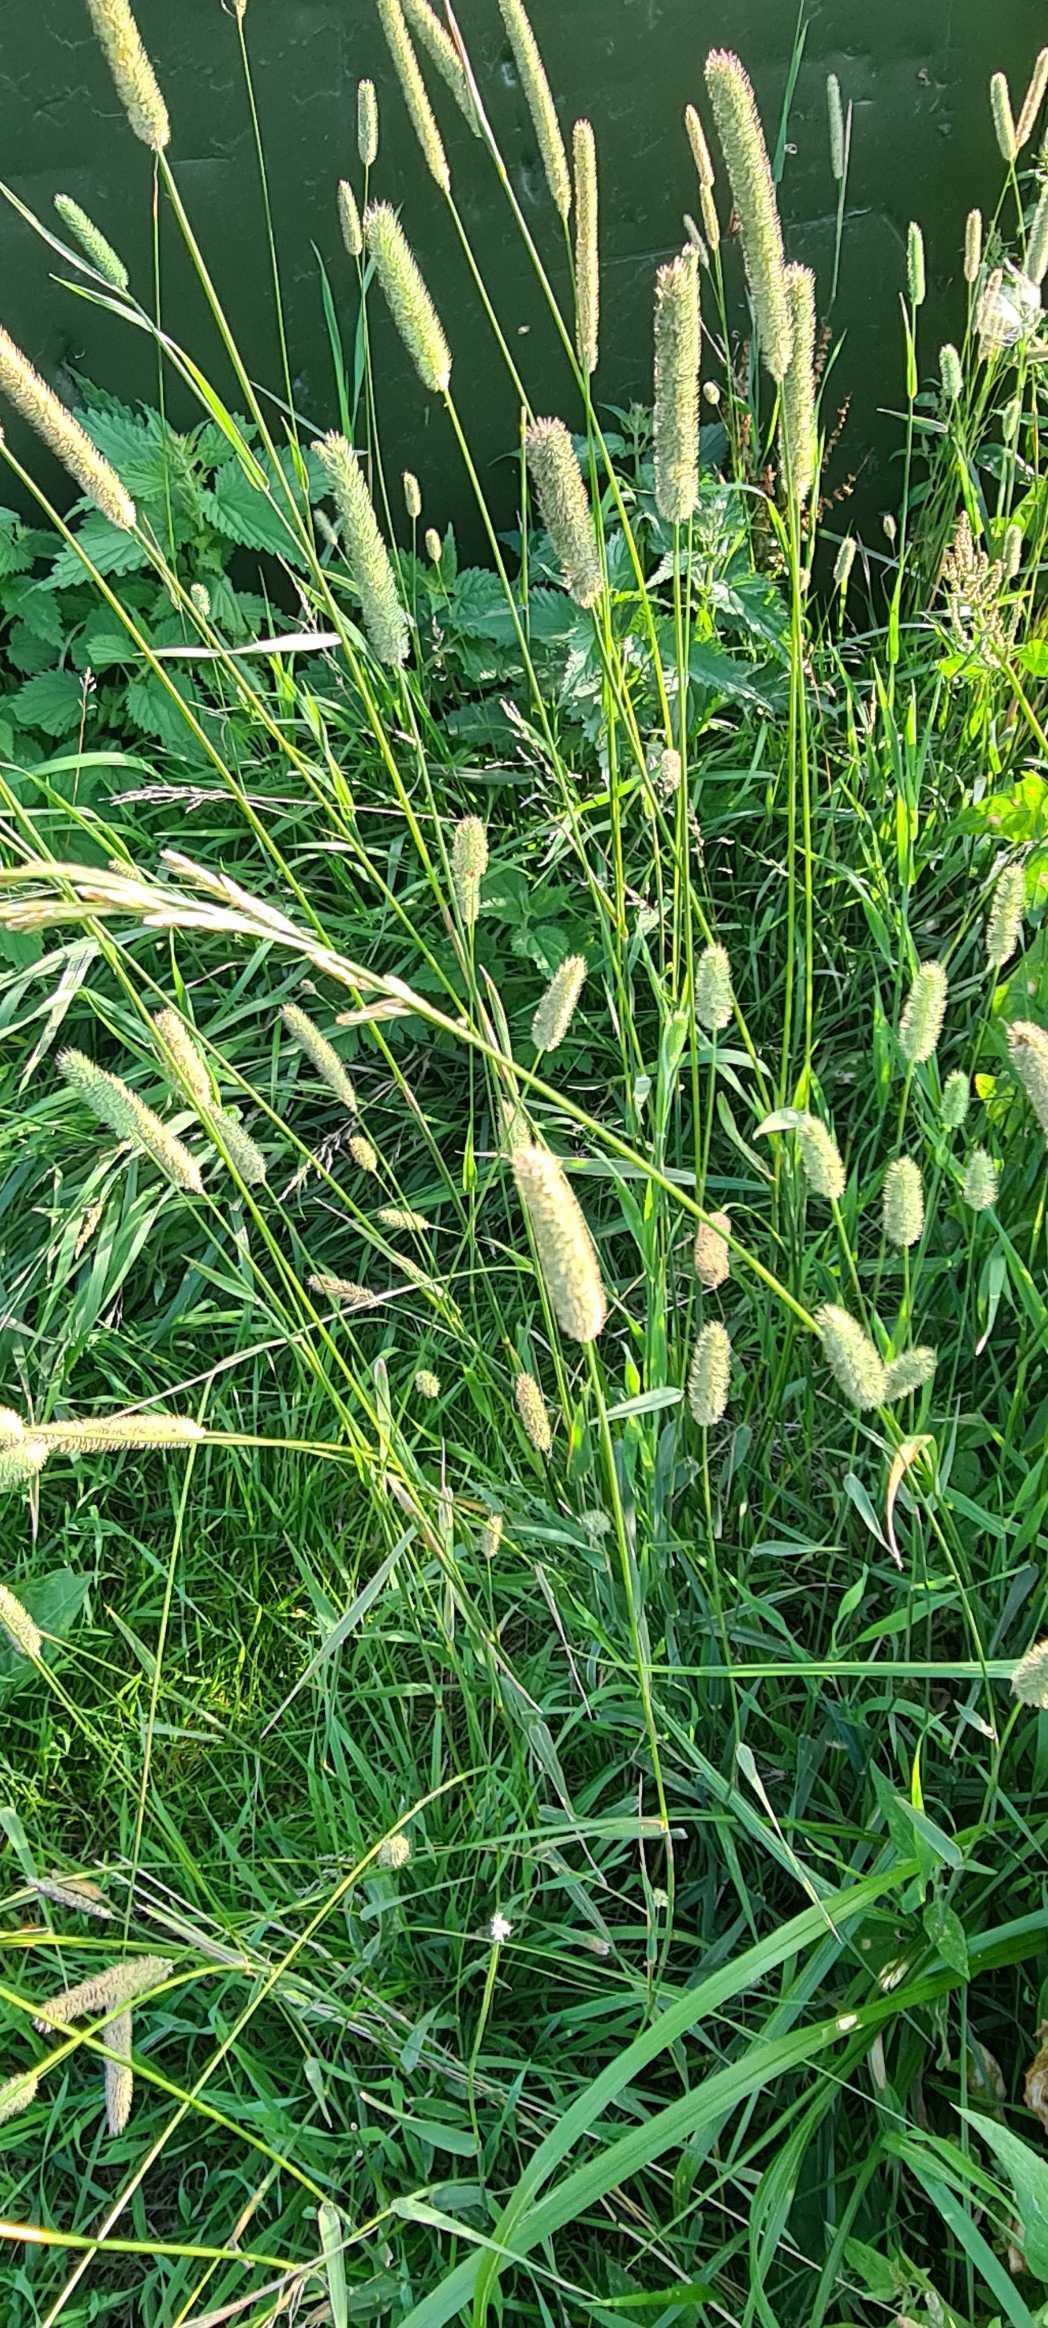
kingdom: Plantae
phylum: Tracheophyta
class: Liliopsida
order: Poales
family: Poaceae
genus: Phleum
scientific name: Phleum pratense
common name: Eng-rottehale
